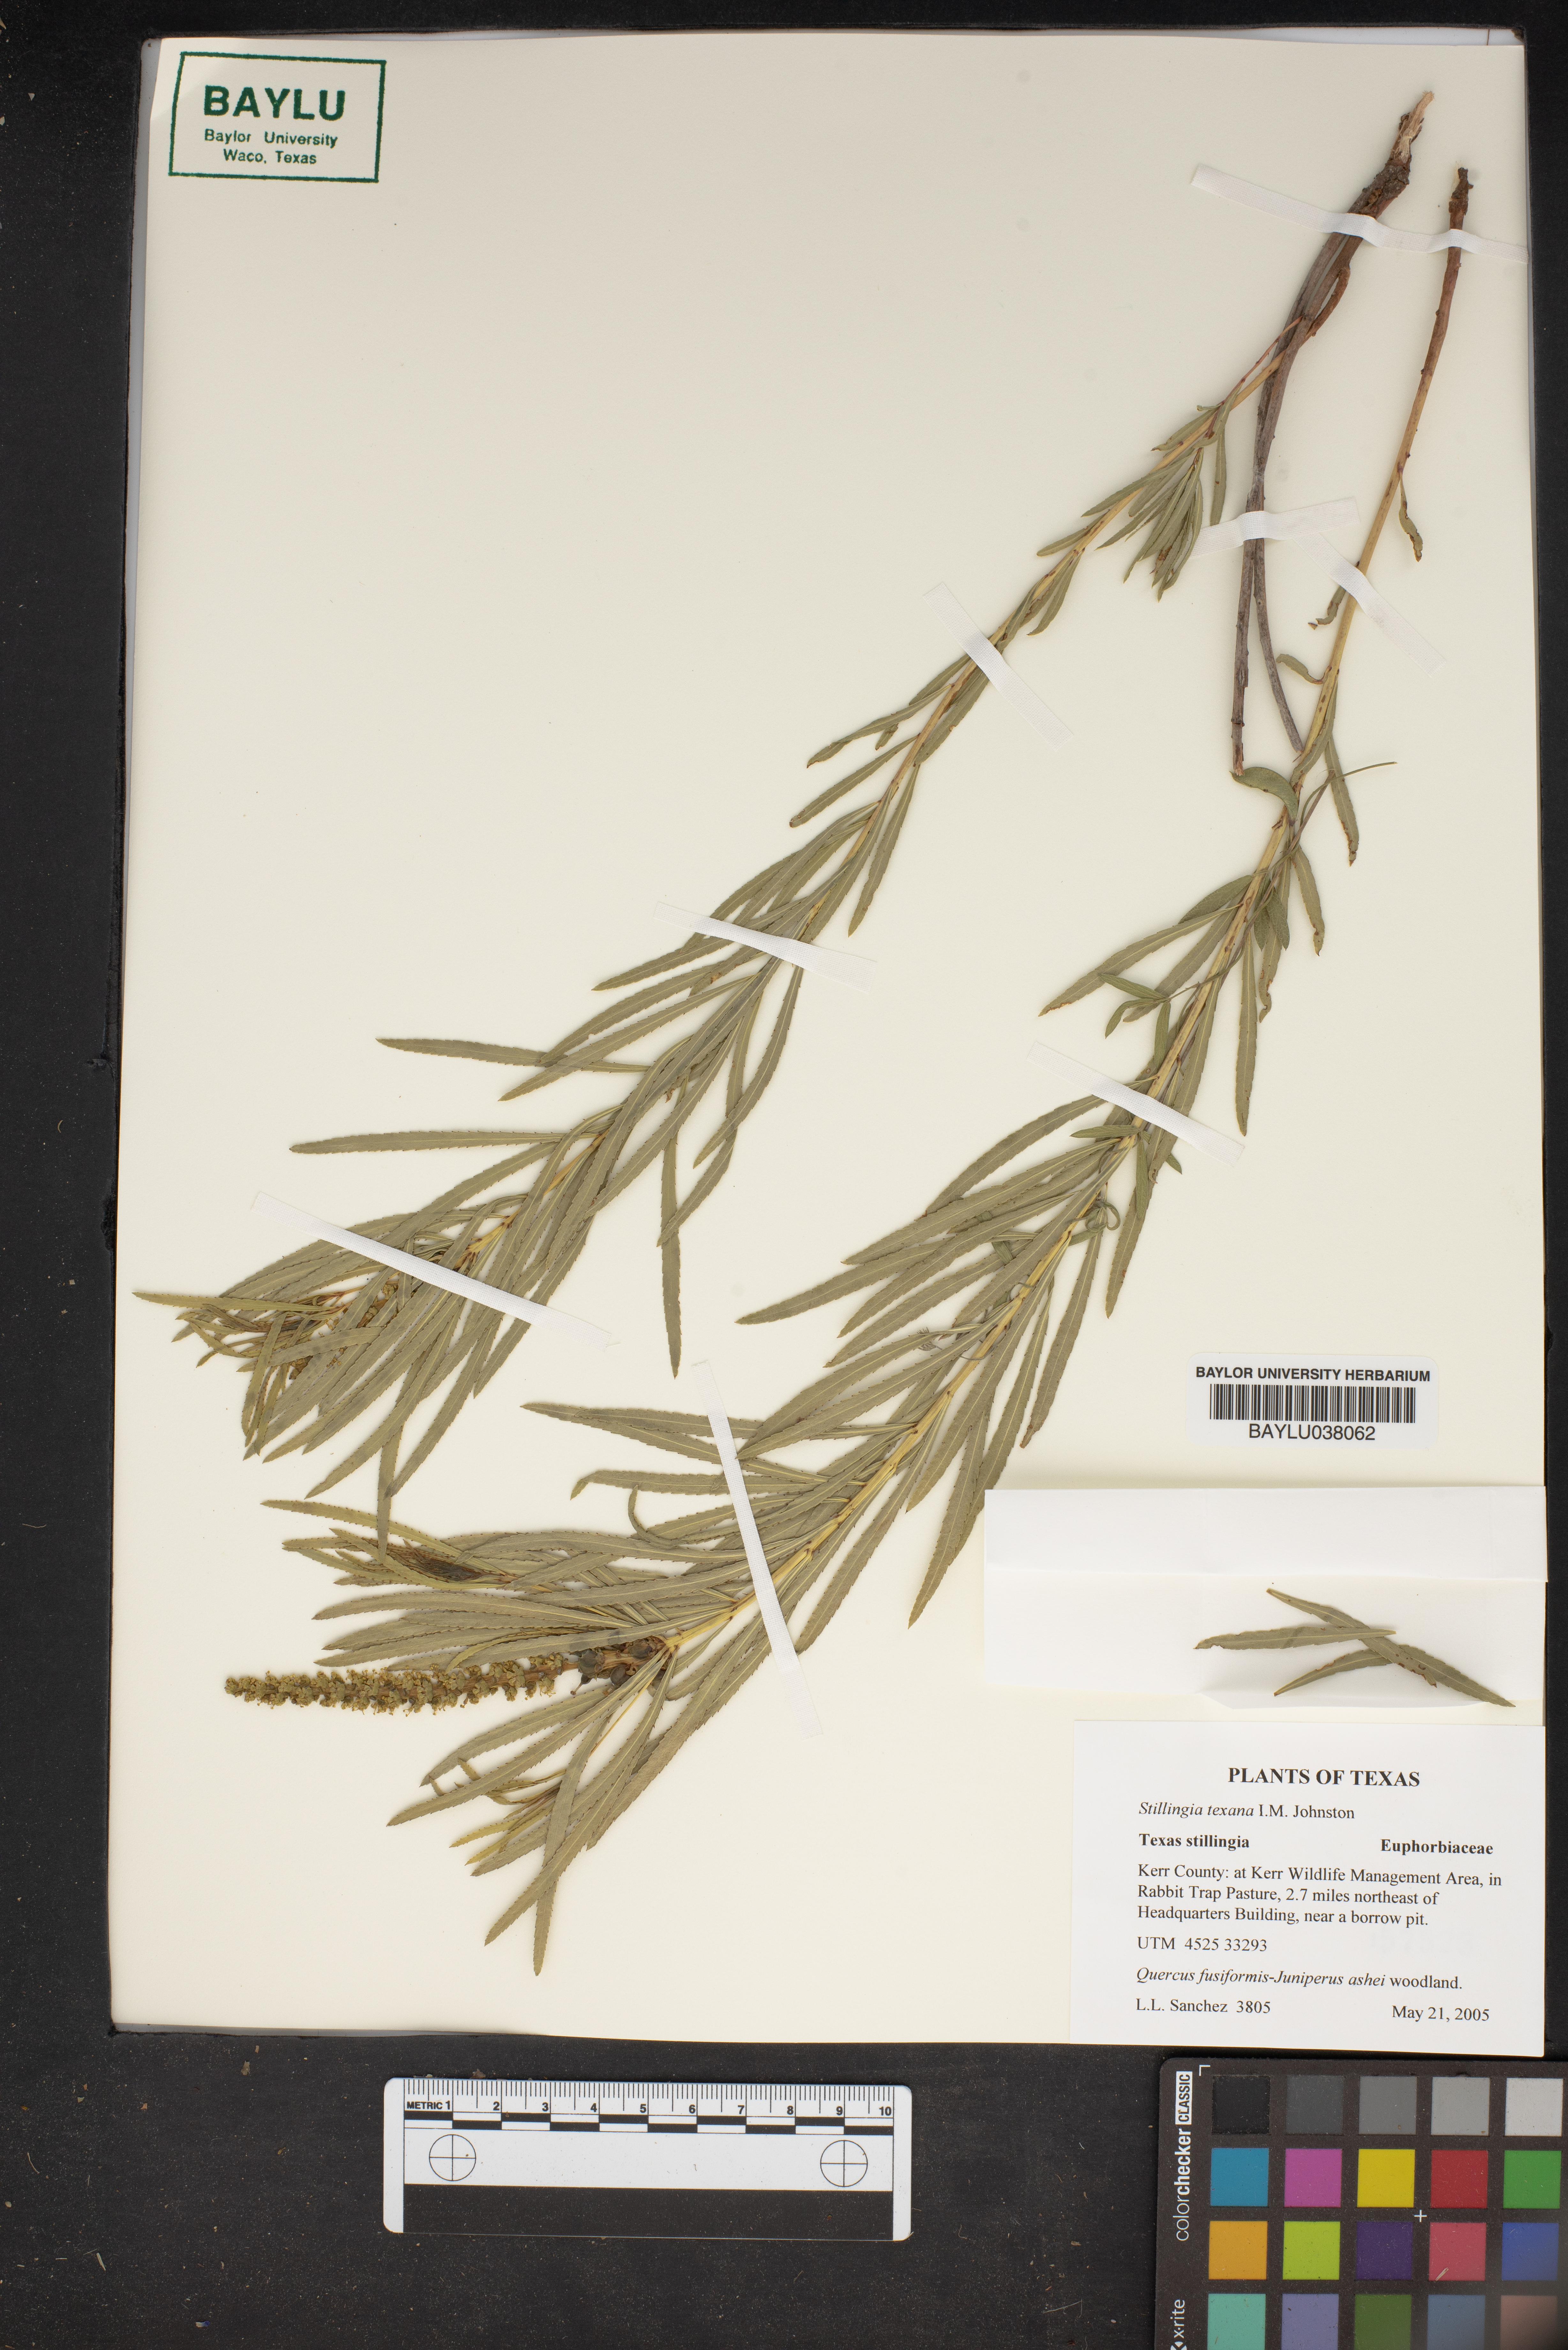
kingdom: Plantae
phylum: Tracheophyta
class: Magnoliopsida
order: Malpighiales
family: Euphorbiaceae
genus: Stillingia
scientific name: Stillingia texana
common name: Texas stillingia
